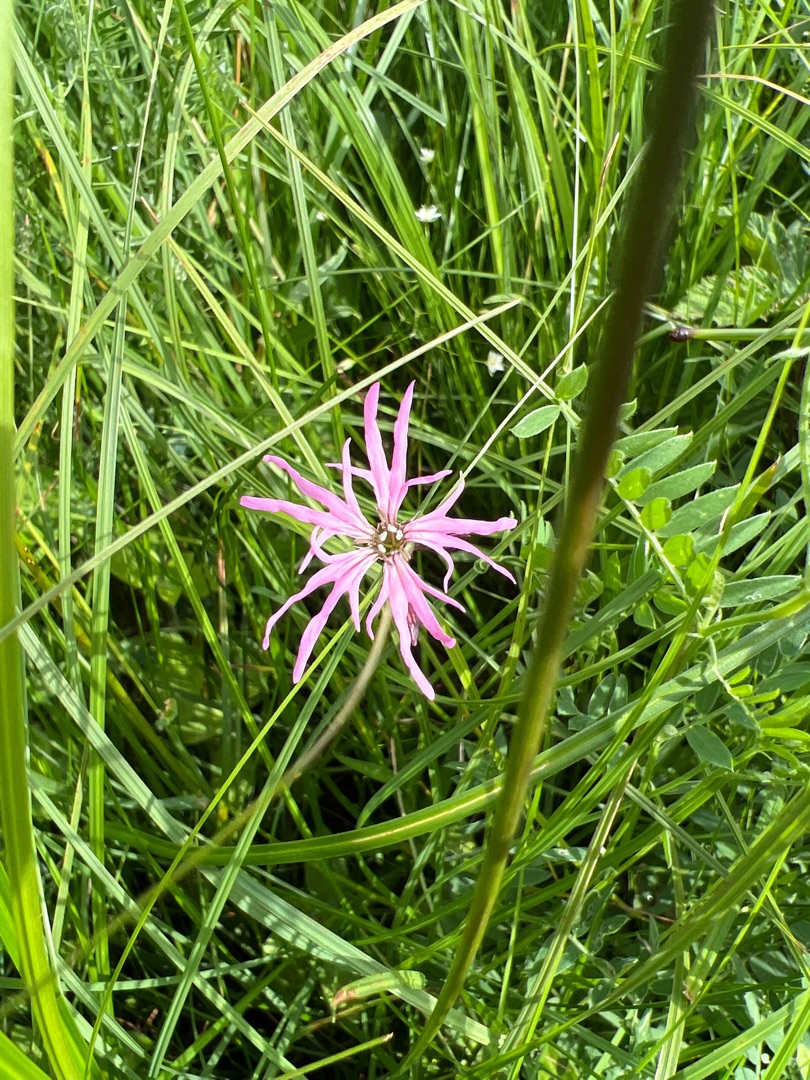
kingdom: Plantae
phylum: Tracheophyta
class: Magnoliopsida
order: Caryophyllales
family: Caryophyllaceae
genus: Silene
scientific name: Silene flos-cuculi
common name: Trævlekrone
